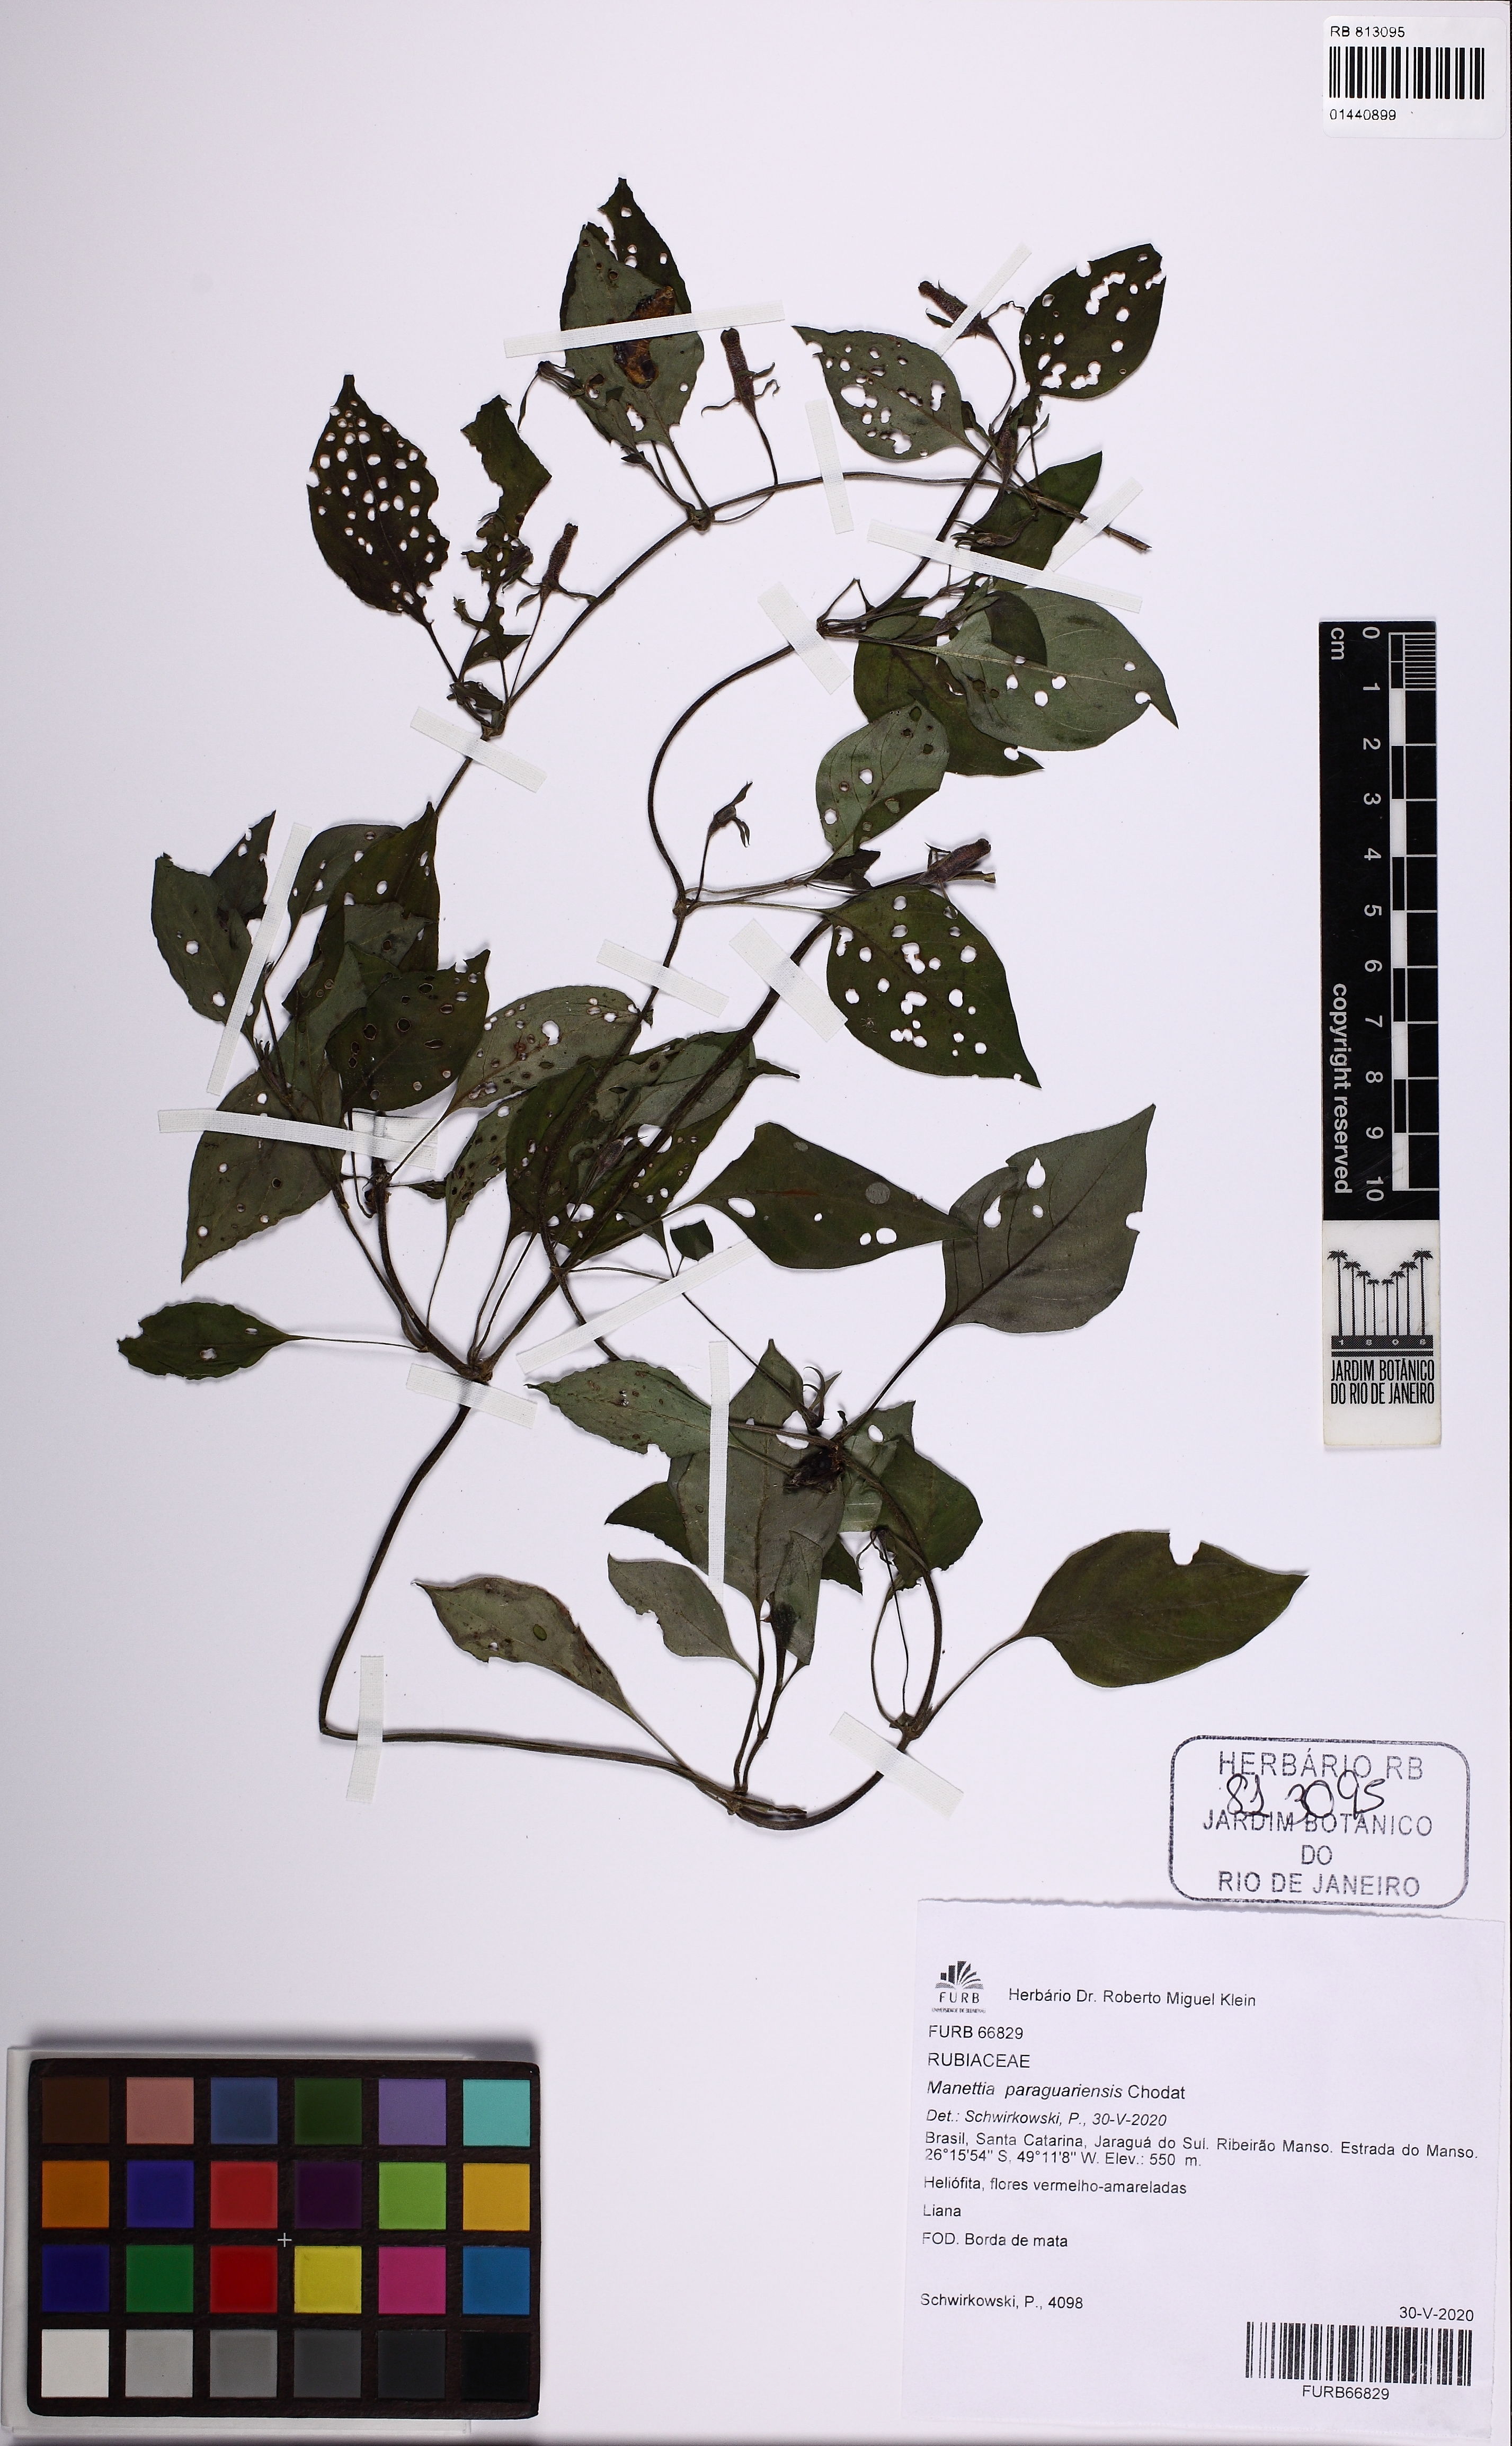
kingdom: Plantae
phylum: Tracheophyta
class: Magnoliopsida
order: Gentianales
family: Rubiaceae
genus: Manettia
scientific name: Manettia paraguariensis
